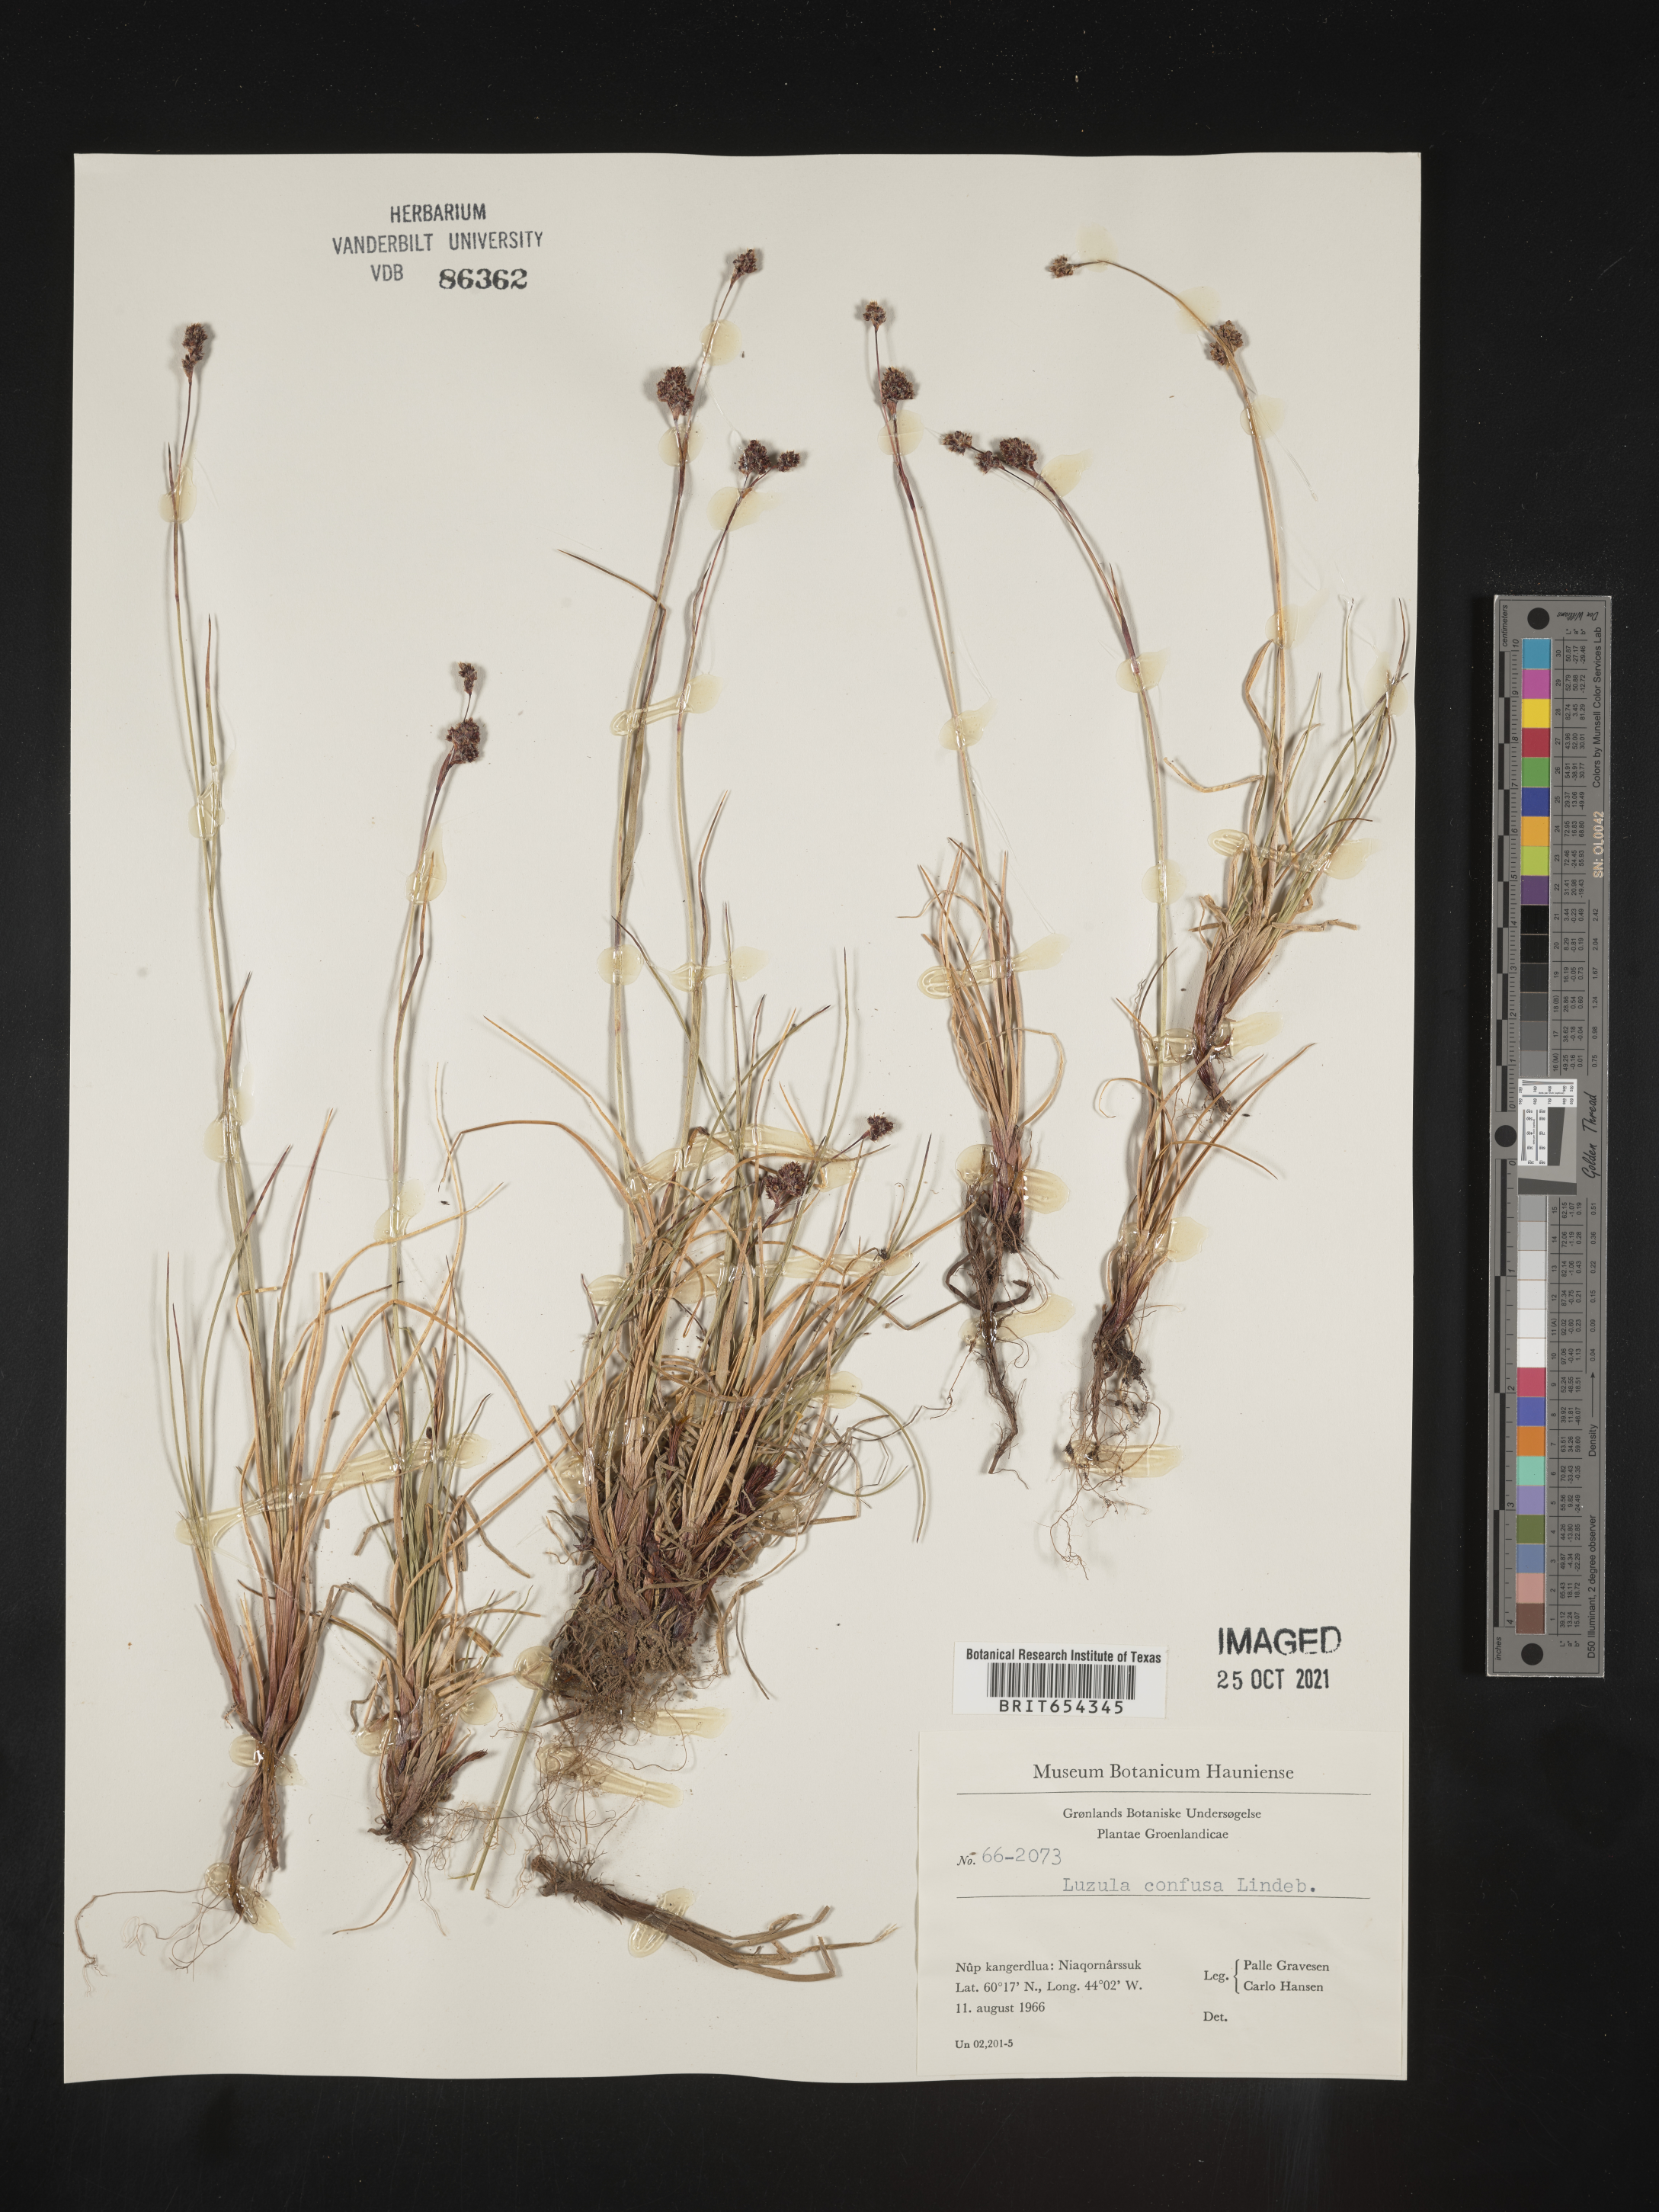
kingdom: Plantae
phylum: Tracheophyta
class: Liliopsida
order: Poales
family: Juncaceae
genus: Luzula
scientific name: Luzula
